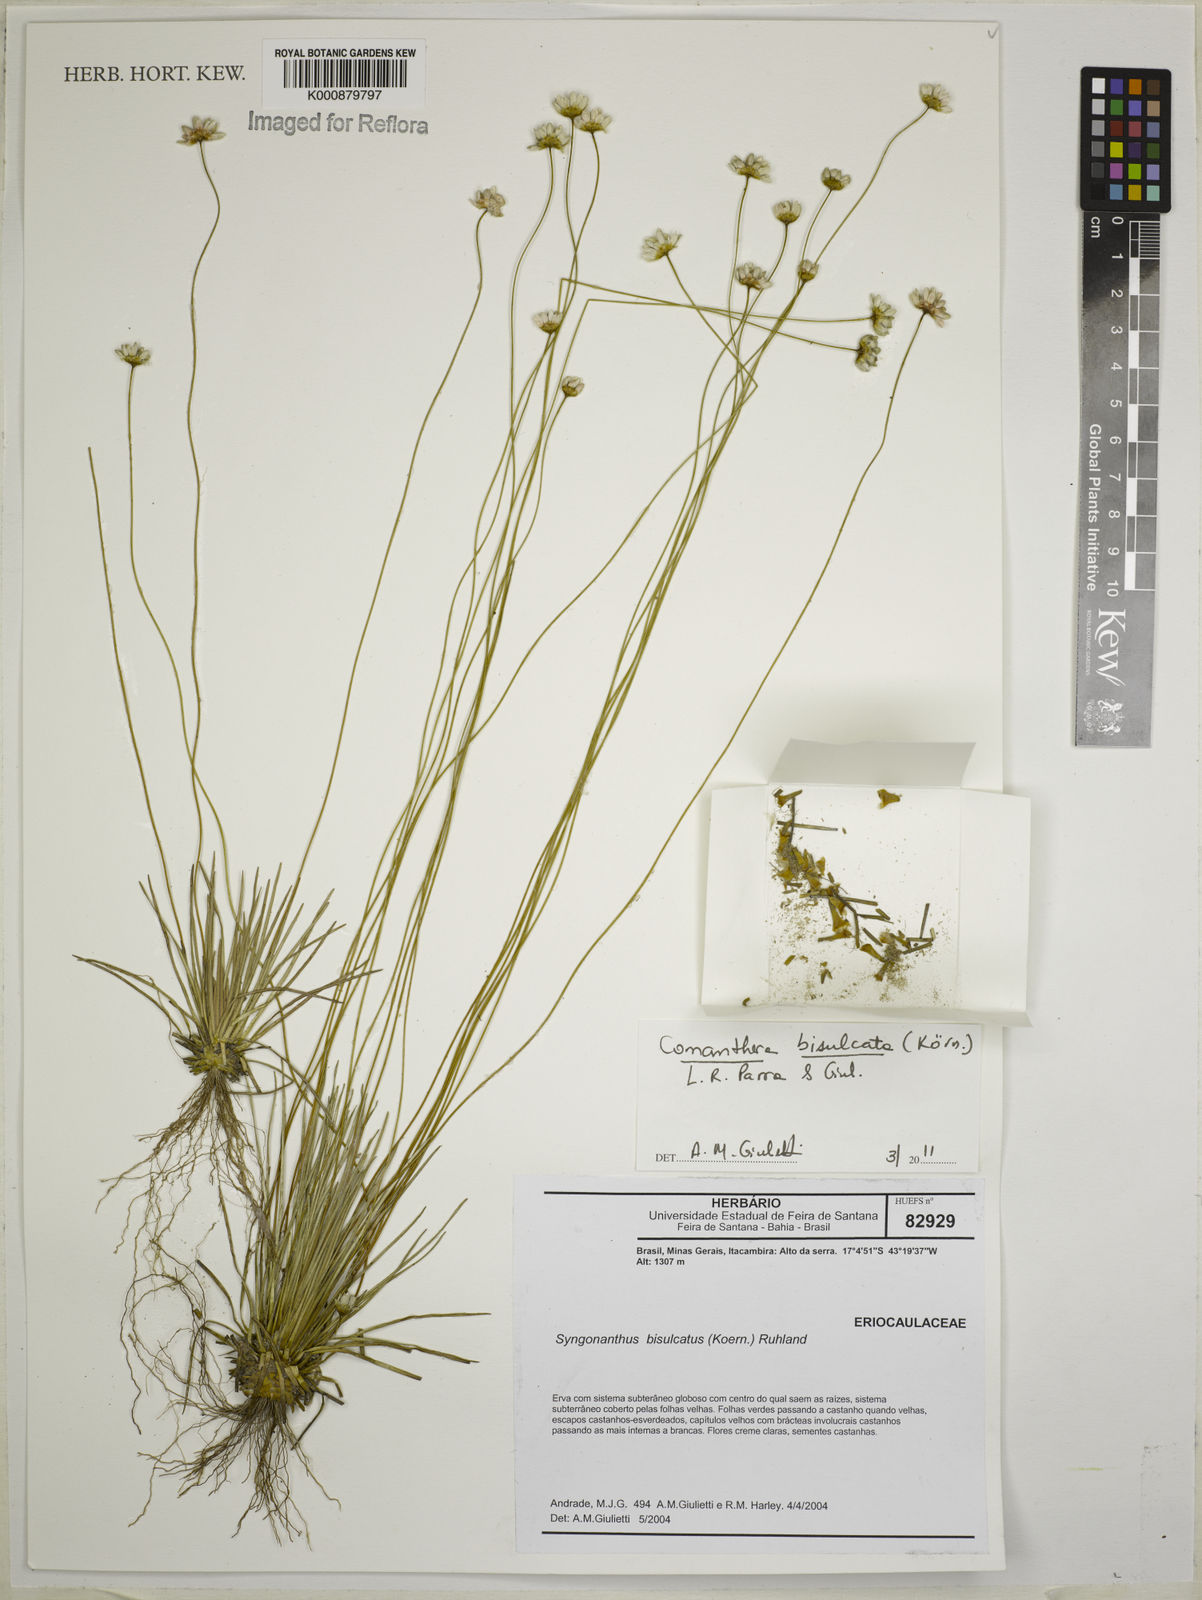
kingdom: Plantae
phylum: Tracheophyta
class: Liliopsida
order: Poales
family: Eriocaulaceae
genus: Comanthera
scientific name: Comanthera
